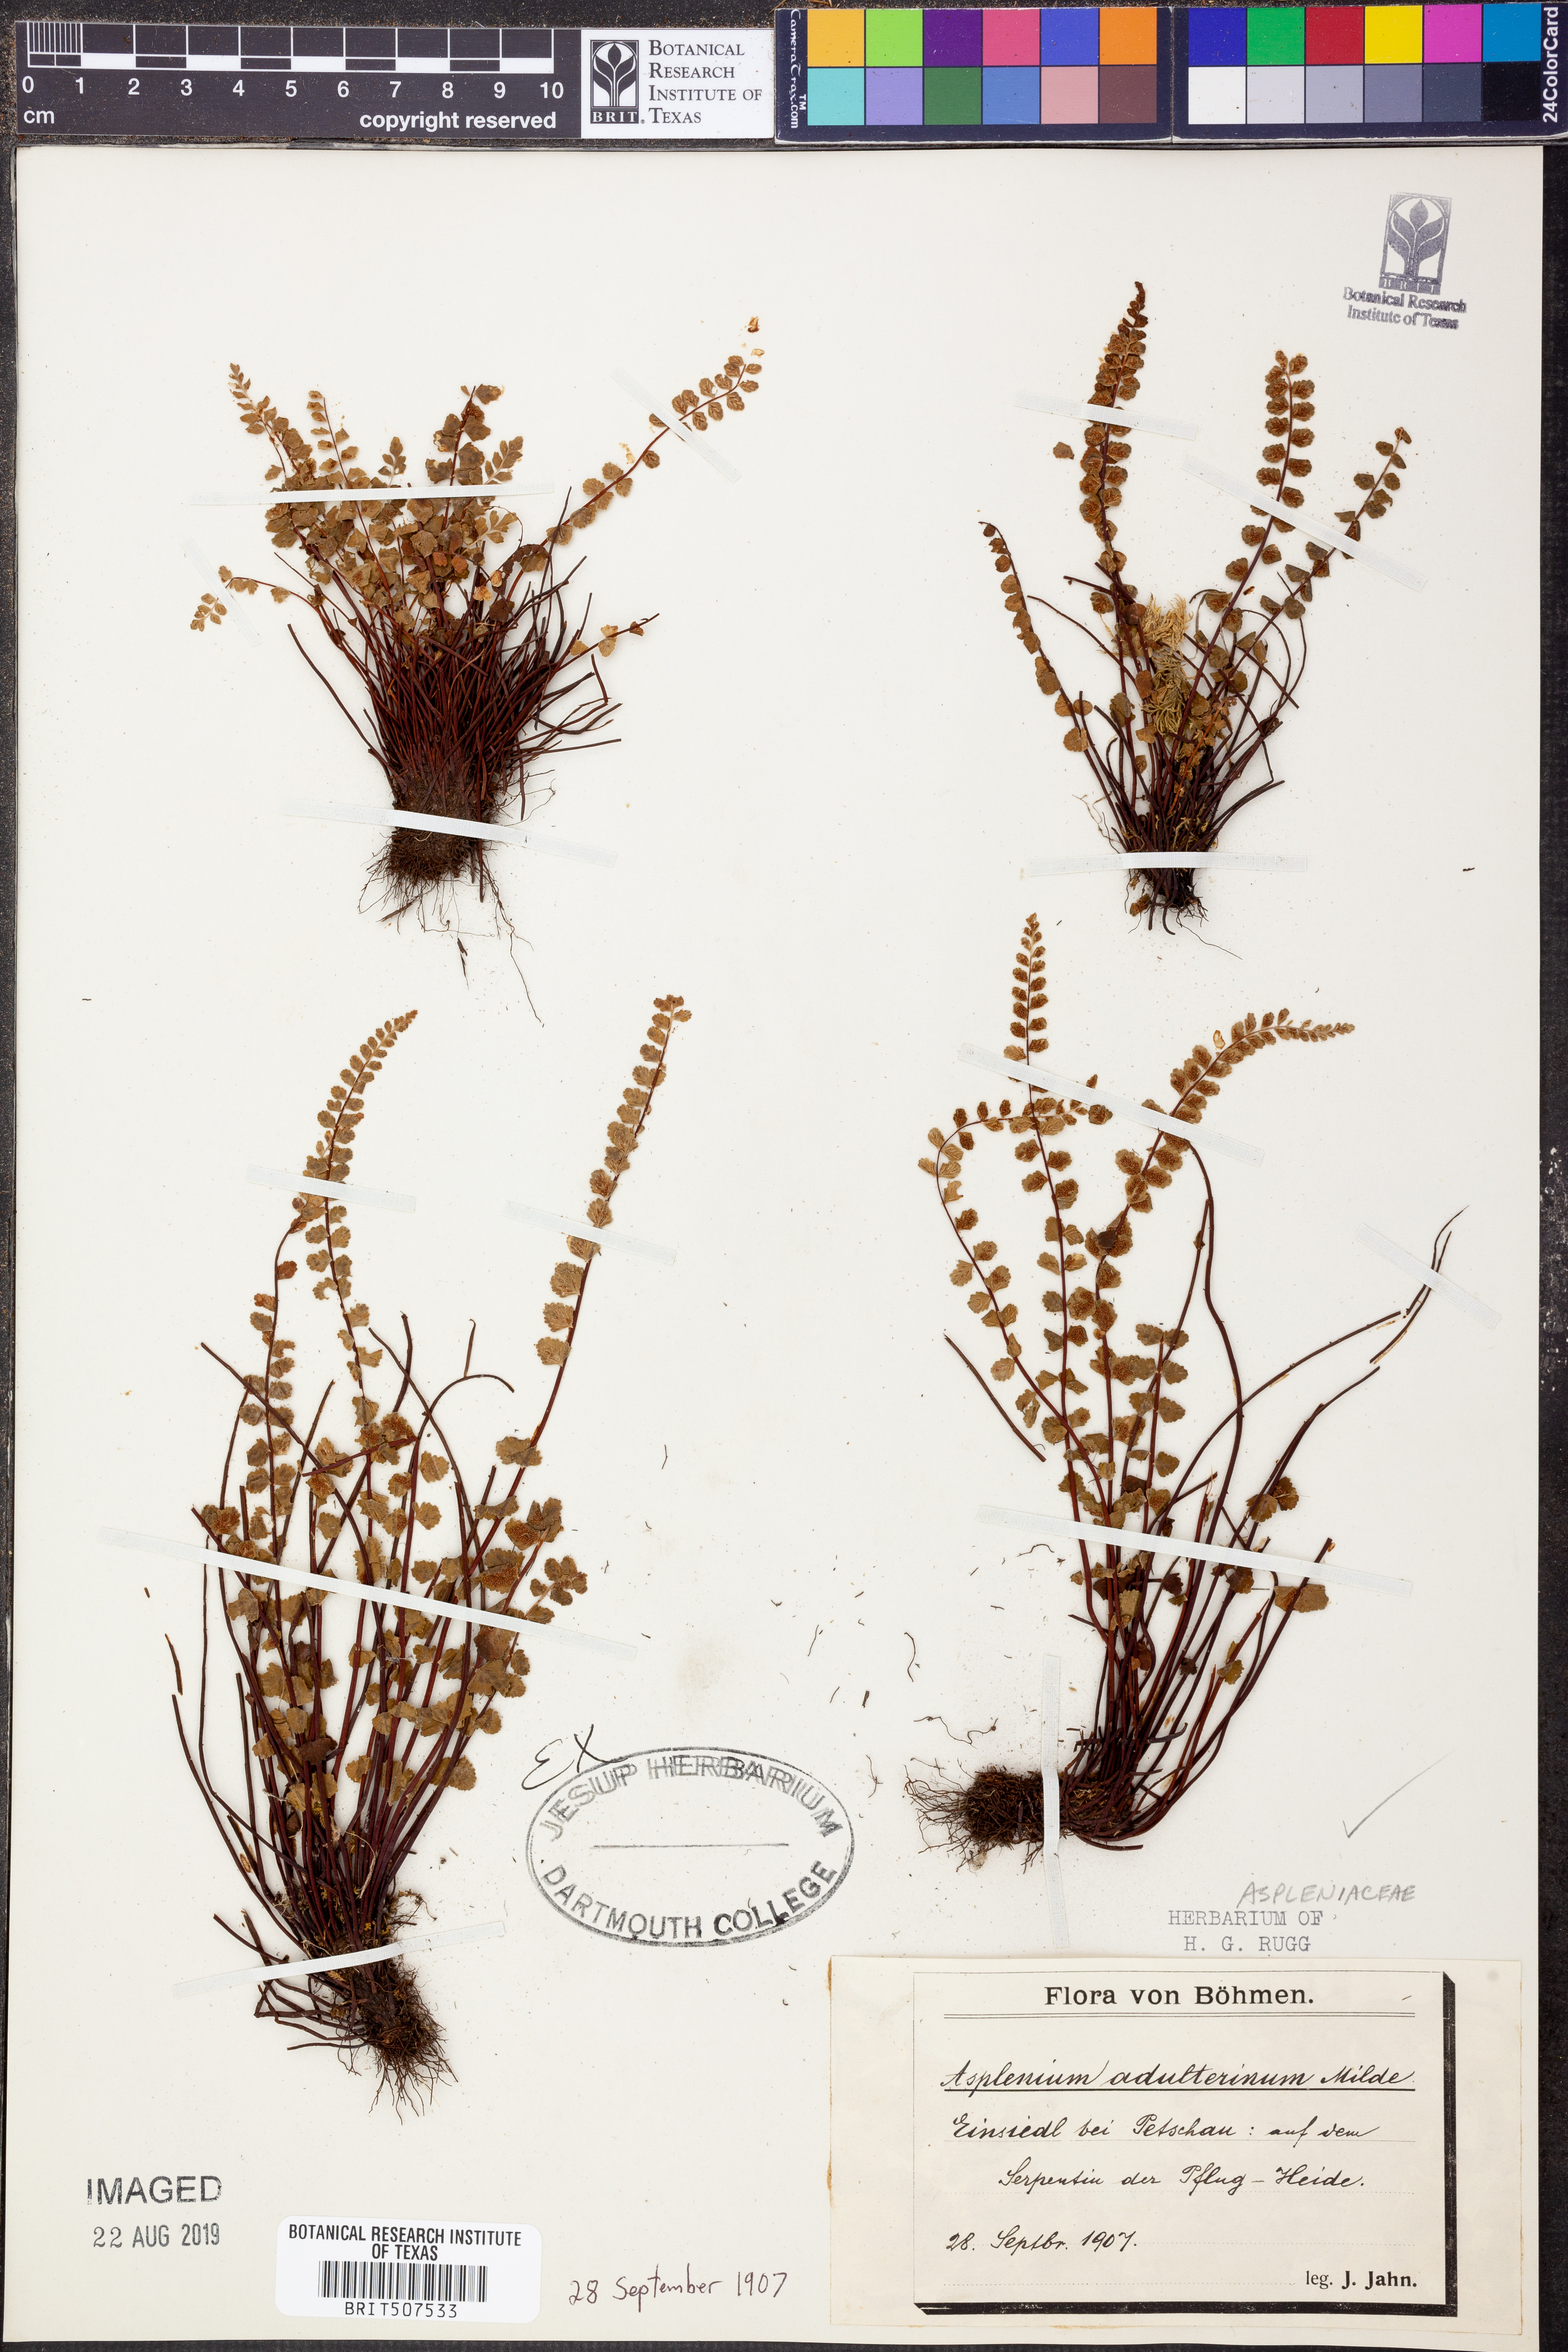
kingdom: Plantae
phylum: Tracheophyta
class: Polypodiopsida
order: Polypodiales
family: Aspleniaceae
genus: Asplenium
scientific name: Asplenium adulterinum
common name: Adulterated spleenwort
